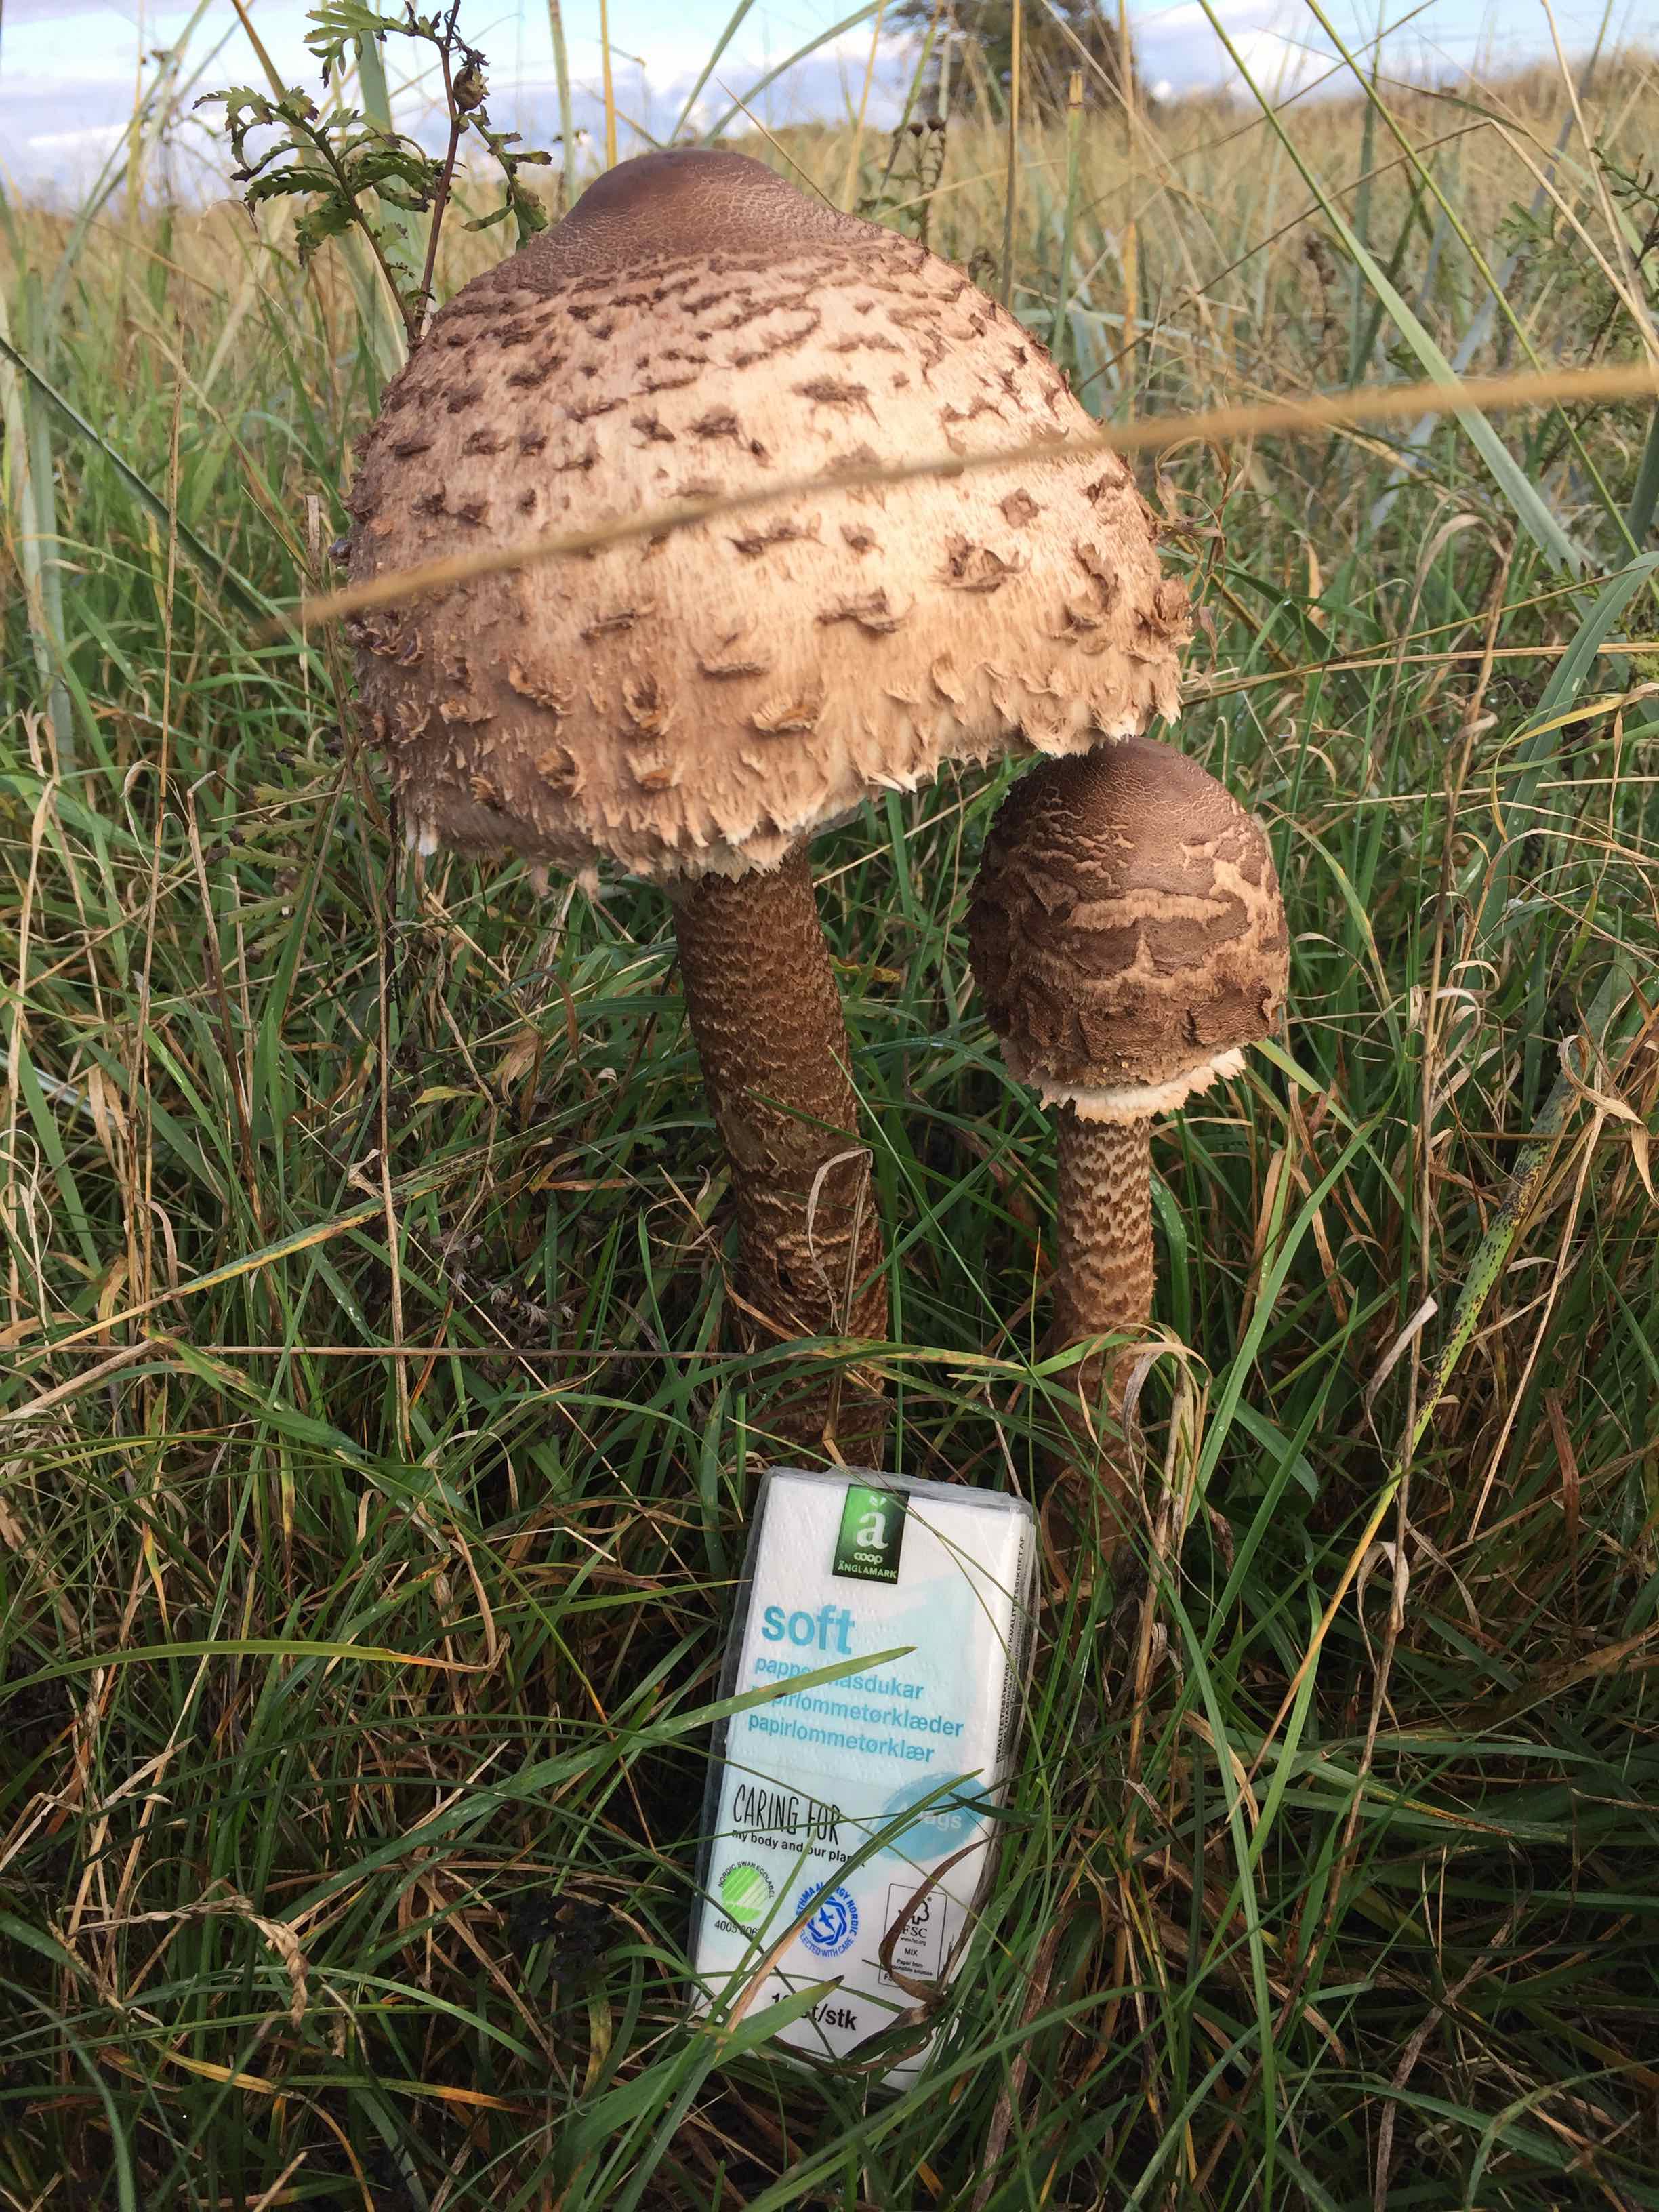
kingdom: Fungi
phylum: Basidiomycota
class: Agaricomycetes
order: Agaricales
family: Agaricaceae
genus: Macrolepiota
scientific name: Macrolepiota procera
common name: stor kæmpeparasolhat
